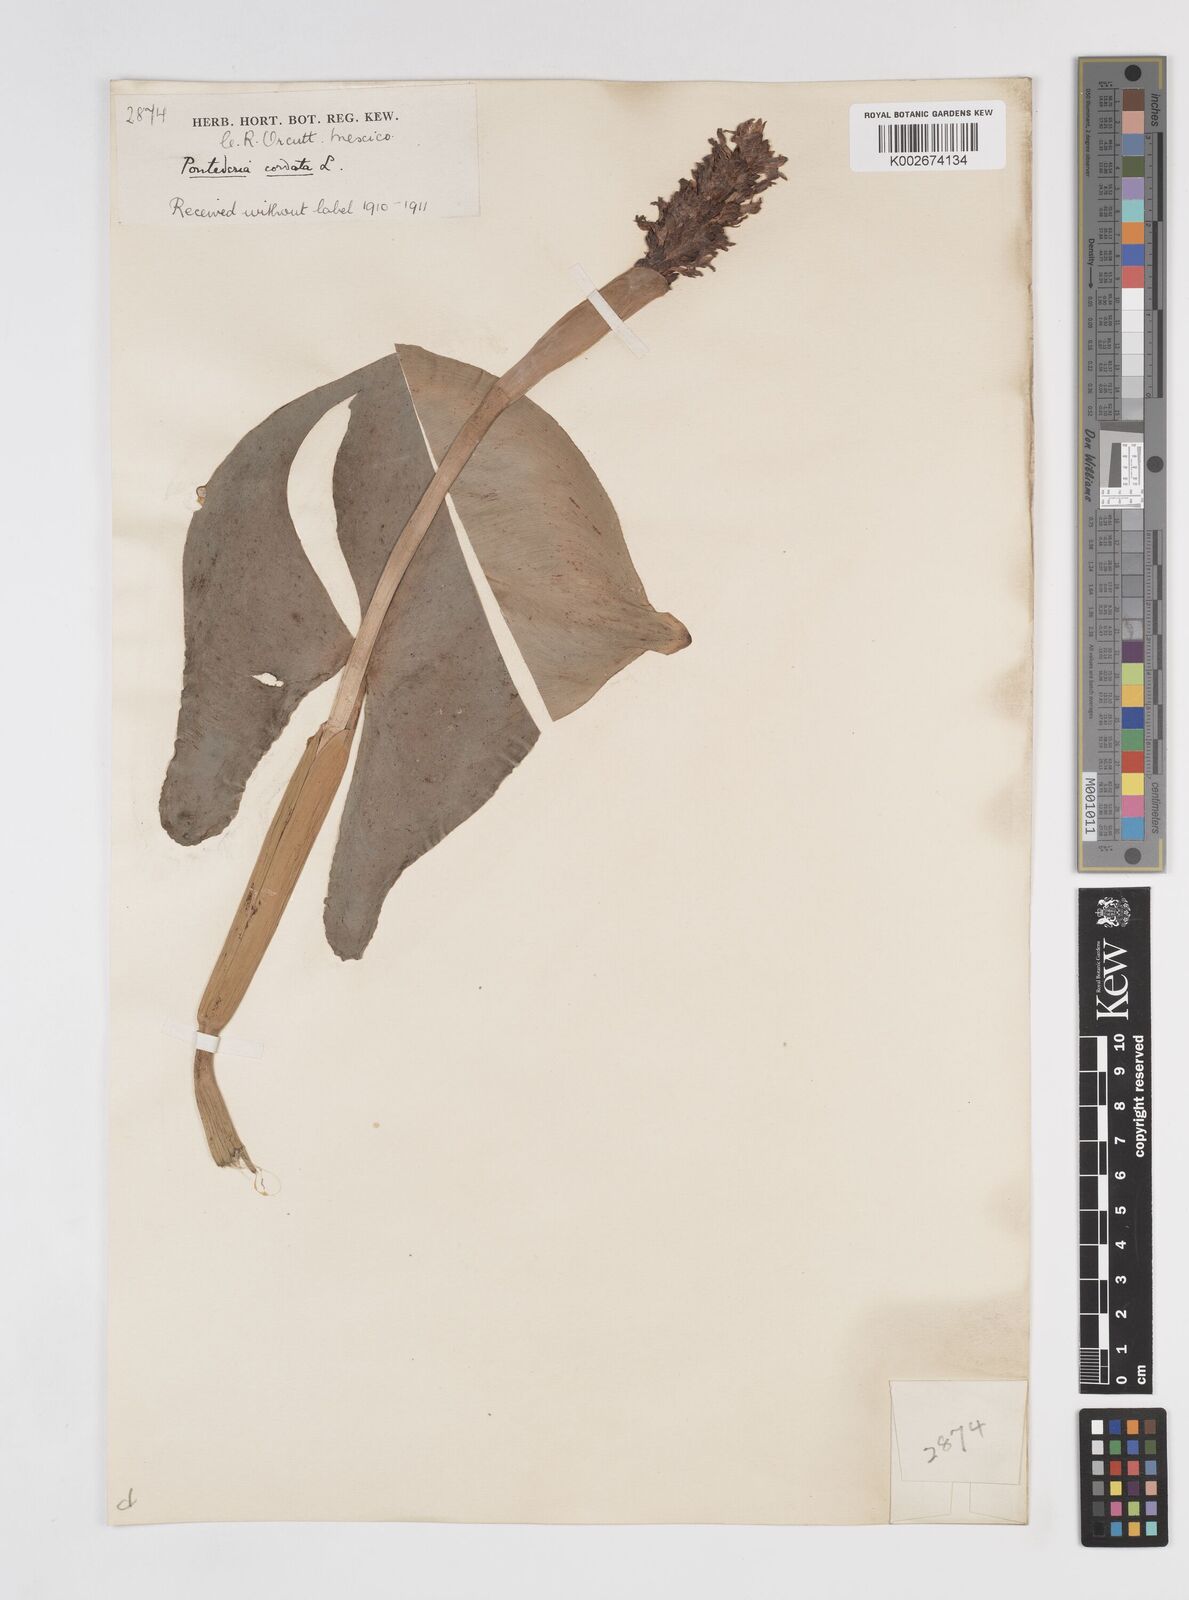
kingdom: Plantae
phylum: Tracheophyta
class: Liliopsida
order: Commelinales
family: Pontederiaceae
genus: Pontederia
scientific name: Pontederia sagittata
